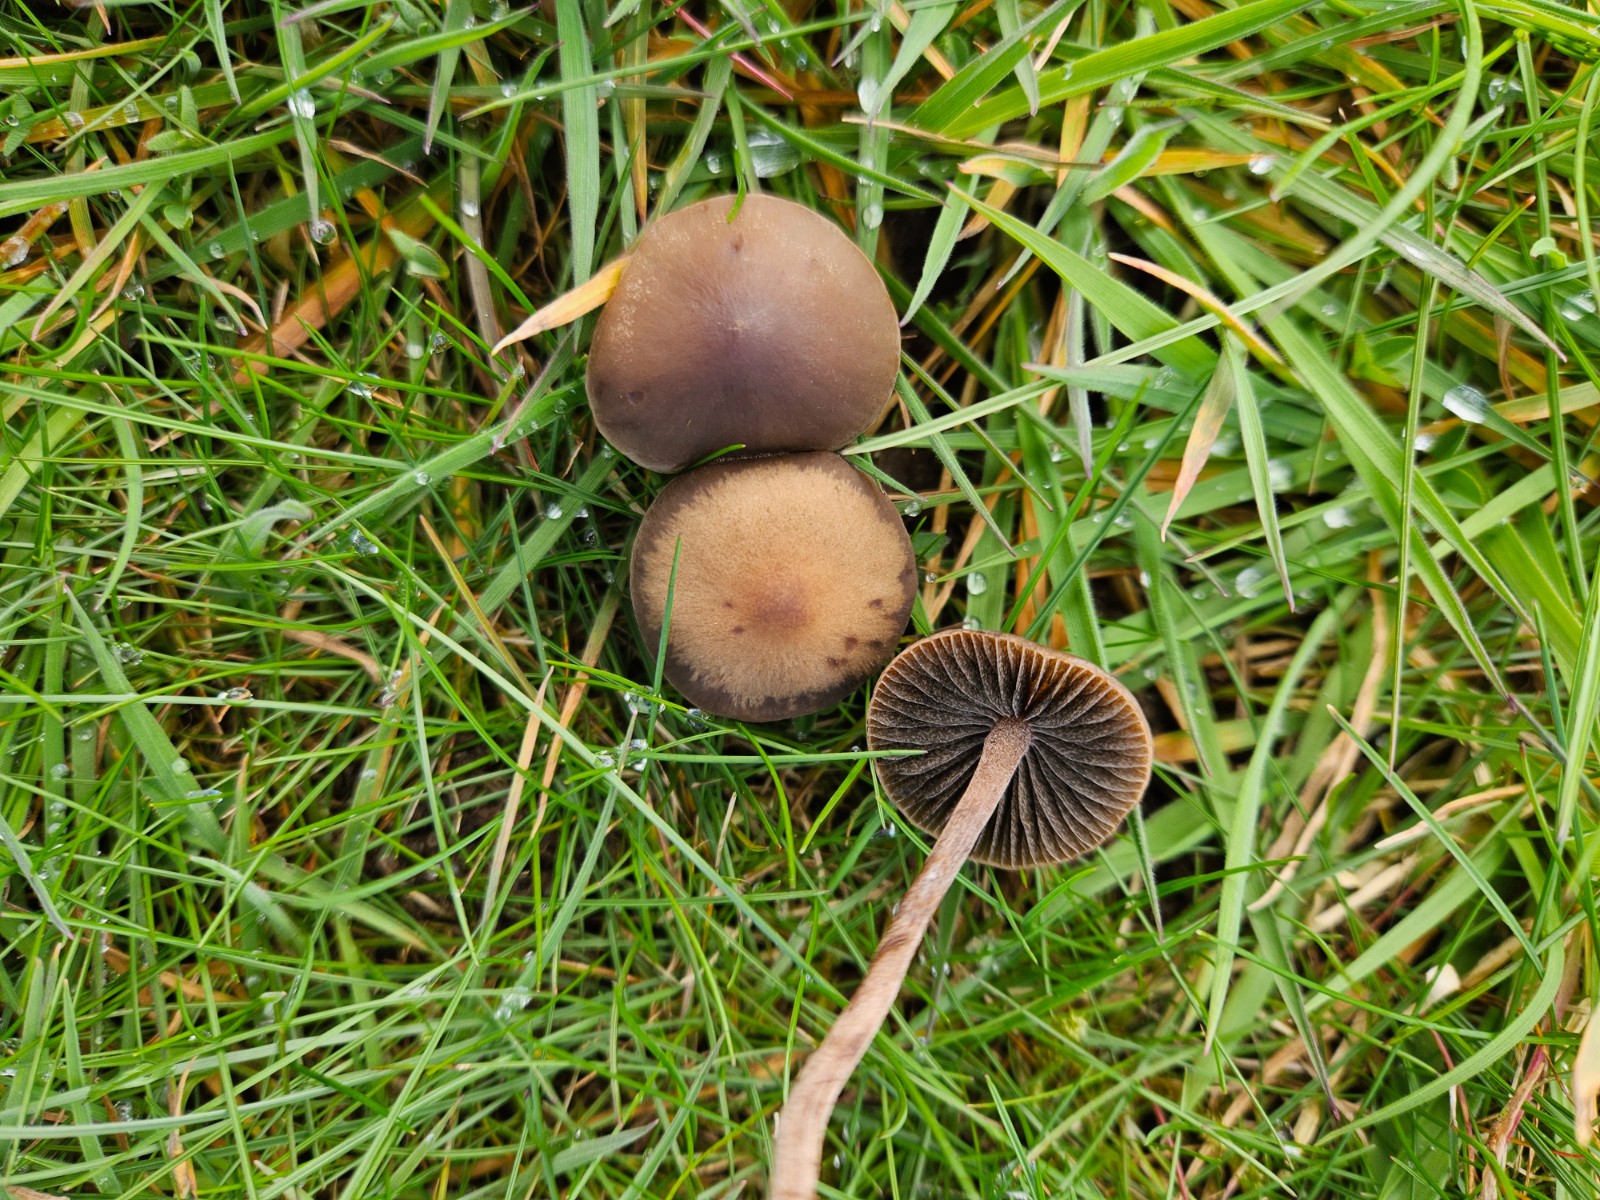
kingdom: Fungi
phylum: Basidiomycota
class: Agaricomycetes
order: Agaricales
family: Bolbitiaceae
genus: Panaeolus
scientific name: Panaeolus fimicola
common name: tidlig glanshat
